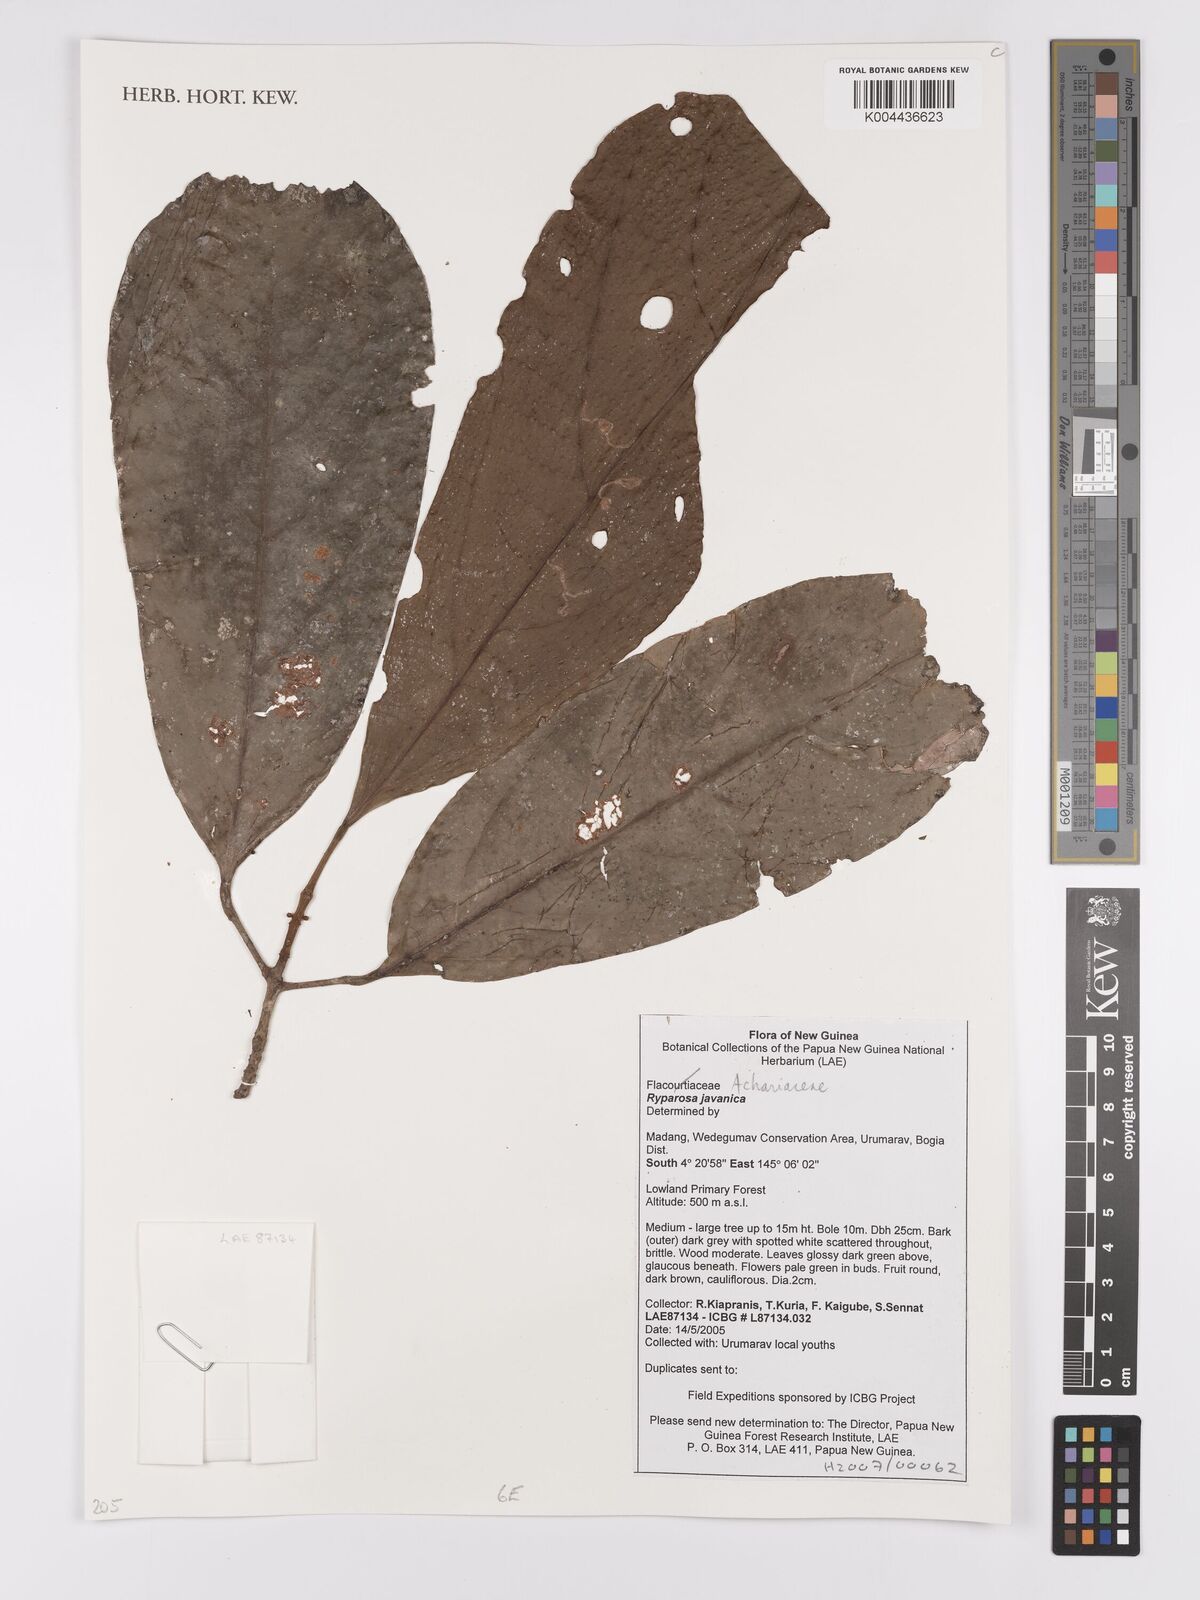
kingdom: Plantae
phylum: Tracheophyta
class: Magnoliopsida
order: Malpighiales
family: Achariaceae
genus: Ryparosa
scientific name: Ryparosa javanica
